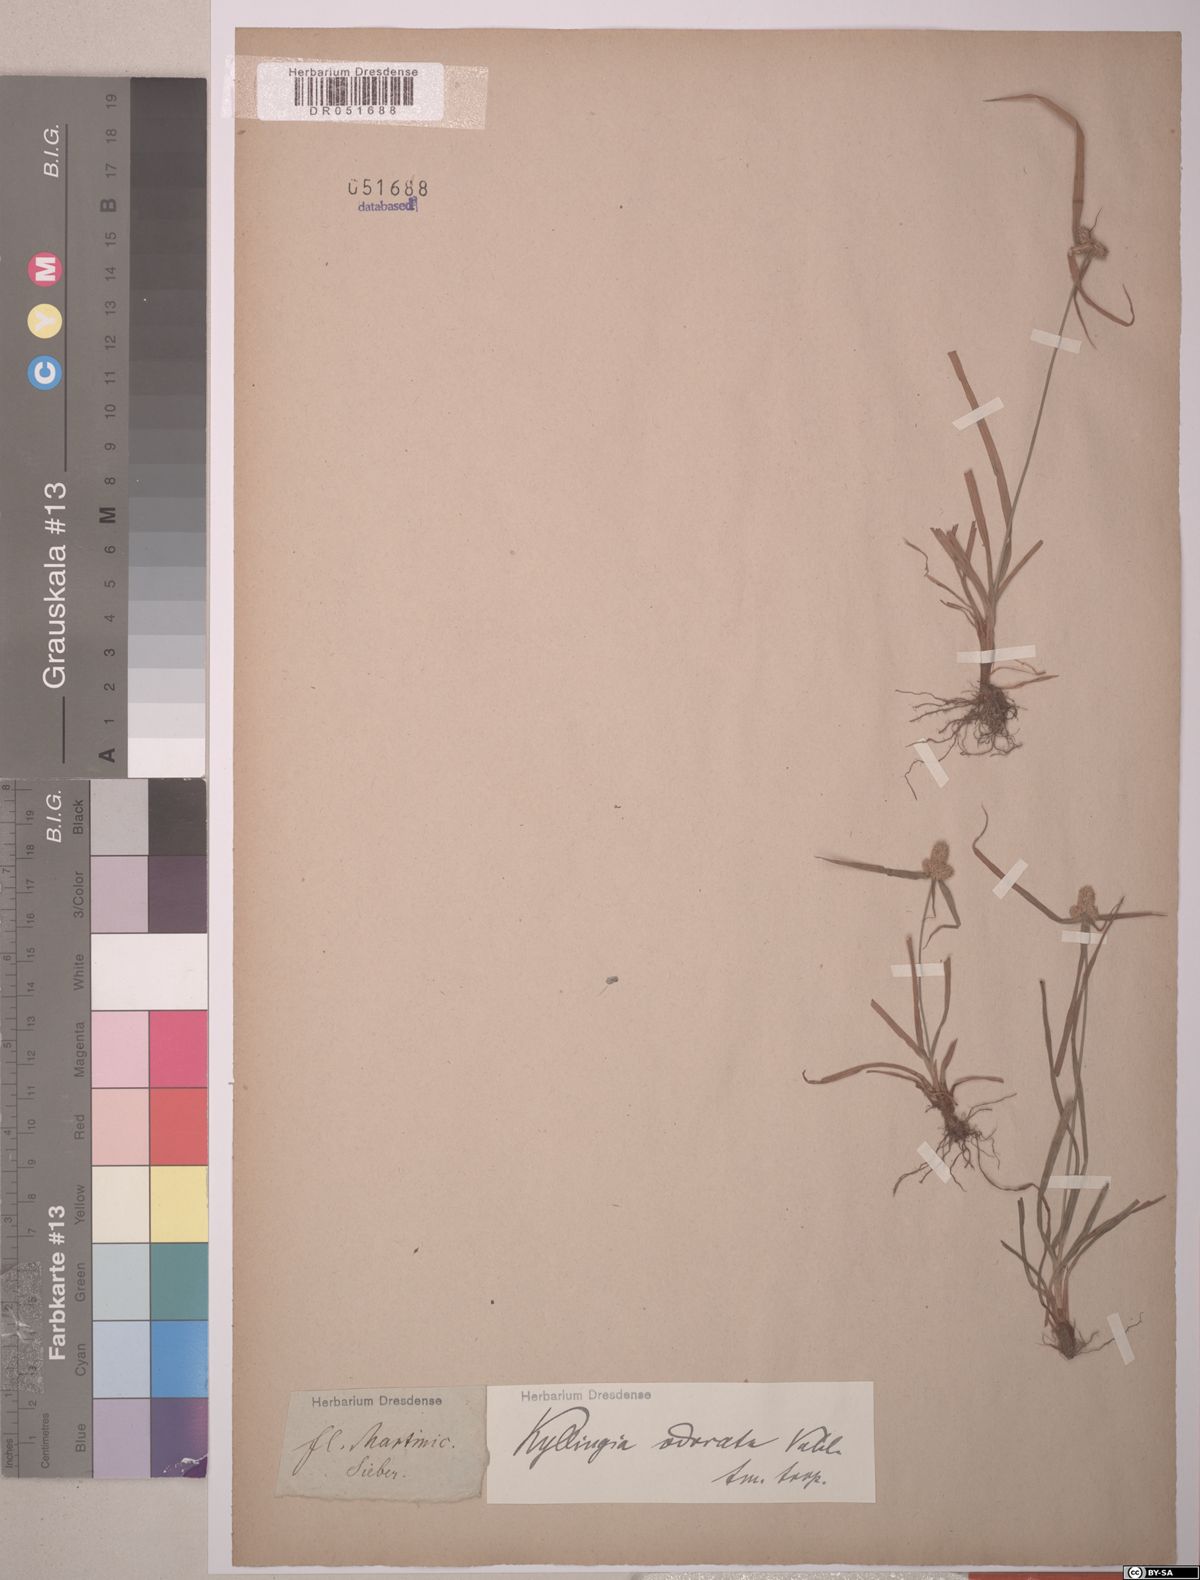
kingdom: Plantae
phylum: Tracheophyta
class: Liliopsida
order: Poales
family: Cyperaceae
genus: Cyperus
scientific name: Cyperus sesquiflorus
